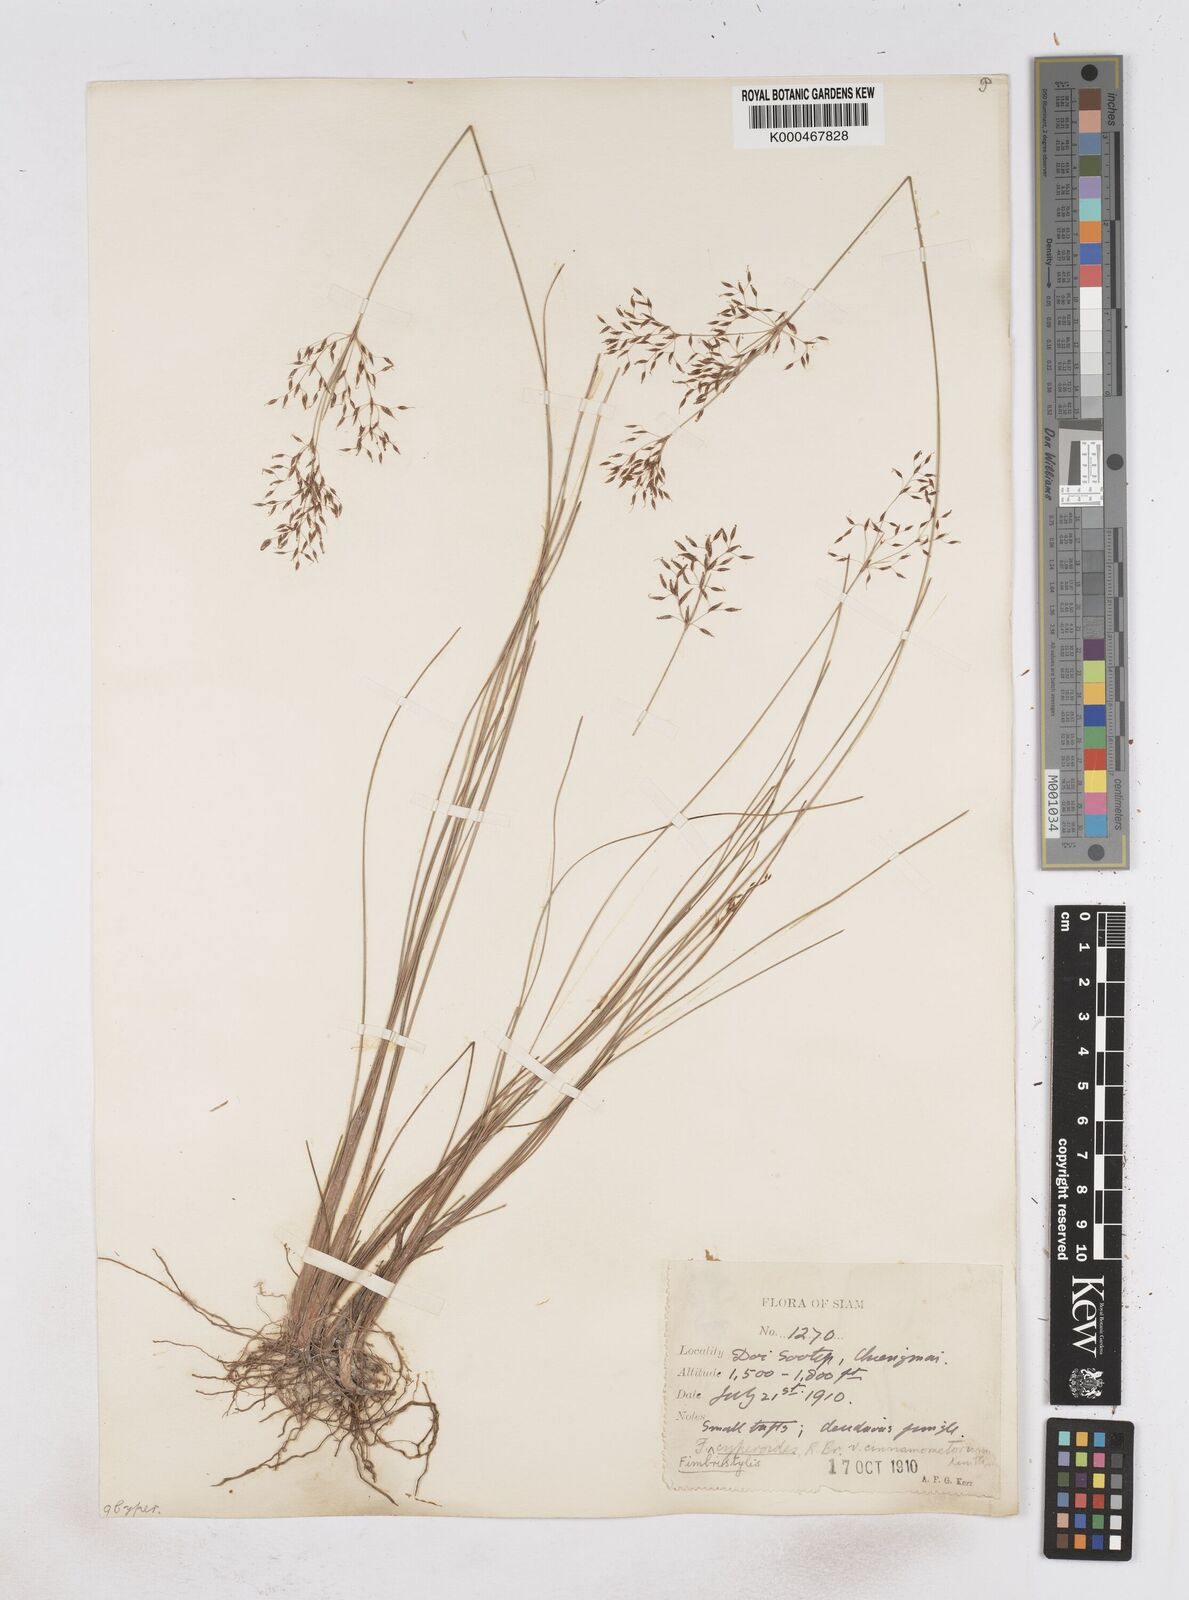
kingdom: Plantae
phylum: Tracheophyta
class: Liliopsida
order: Poales
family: Cyperaceae
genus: Fimbristylis
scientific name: Fimbristylis cinnamometorum
